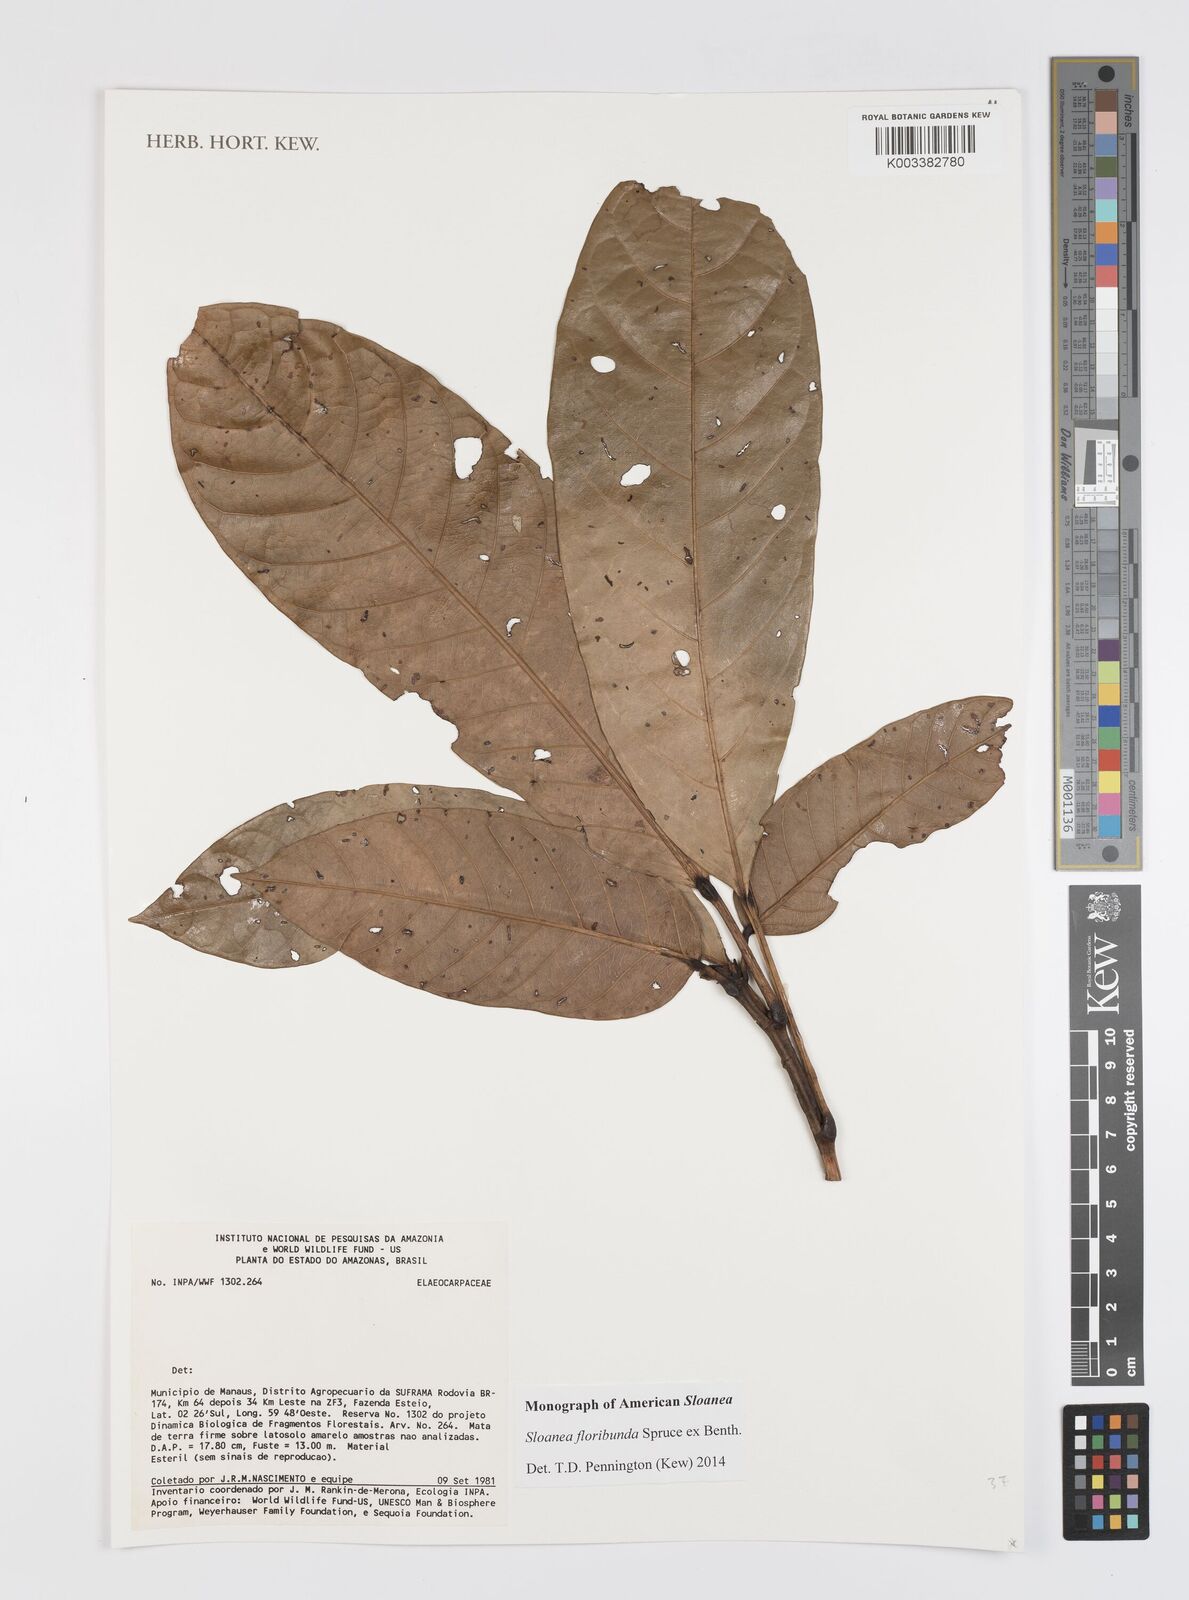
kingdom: Plantae
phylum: Tracheophyta
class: Magnoliopsida
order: Oxalidales
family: Elaeocarpaceae
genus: Sloanea
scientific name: Sloanea floribunda
